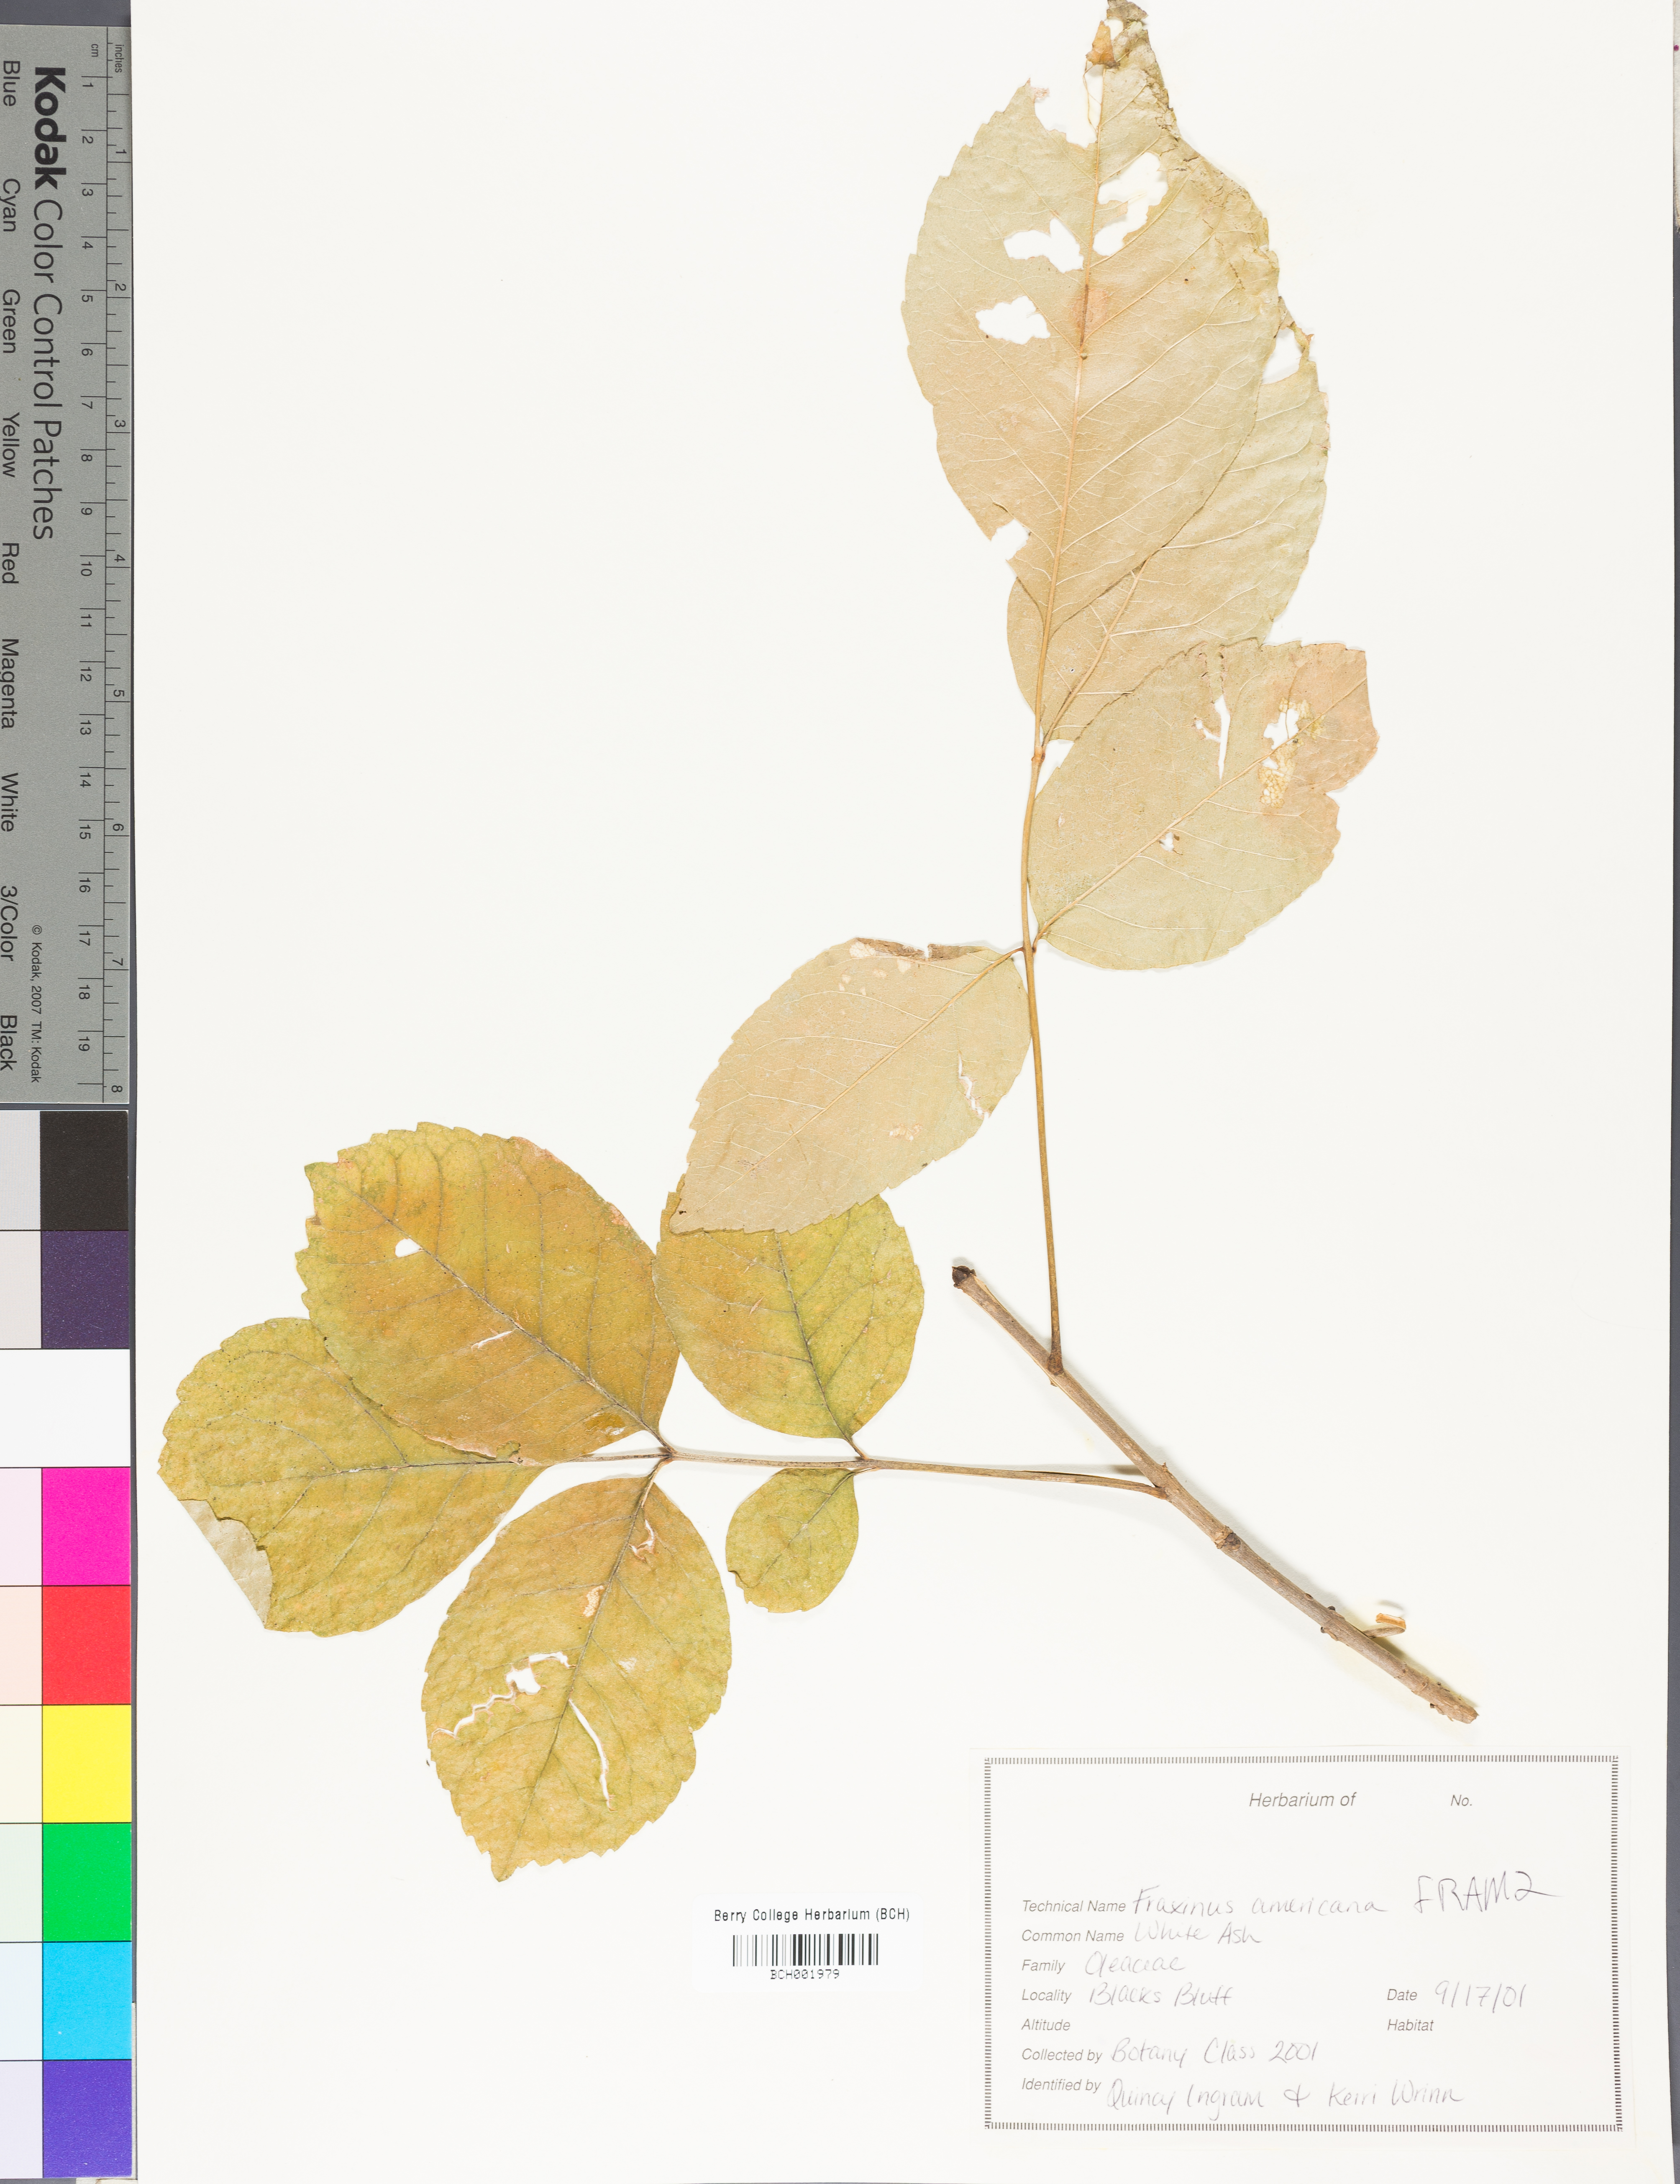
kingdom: Plantae
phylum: Tracheophyta
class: Magnoliopsida
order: Lamiales
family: Oleaceae
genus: Fraxinus
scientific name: Fraxinus americana
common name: White ash
